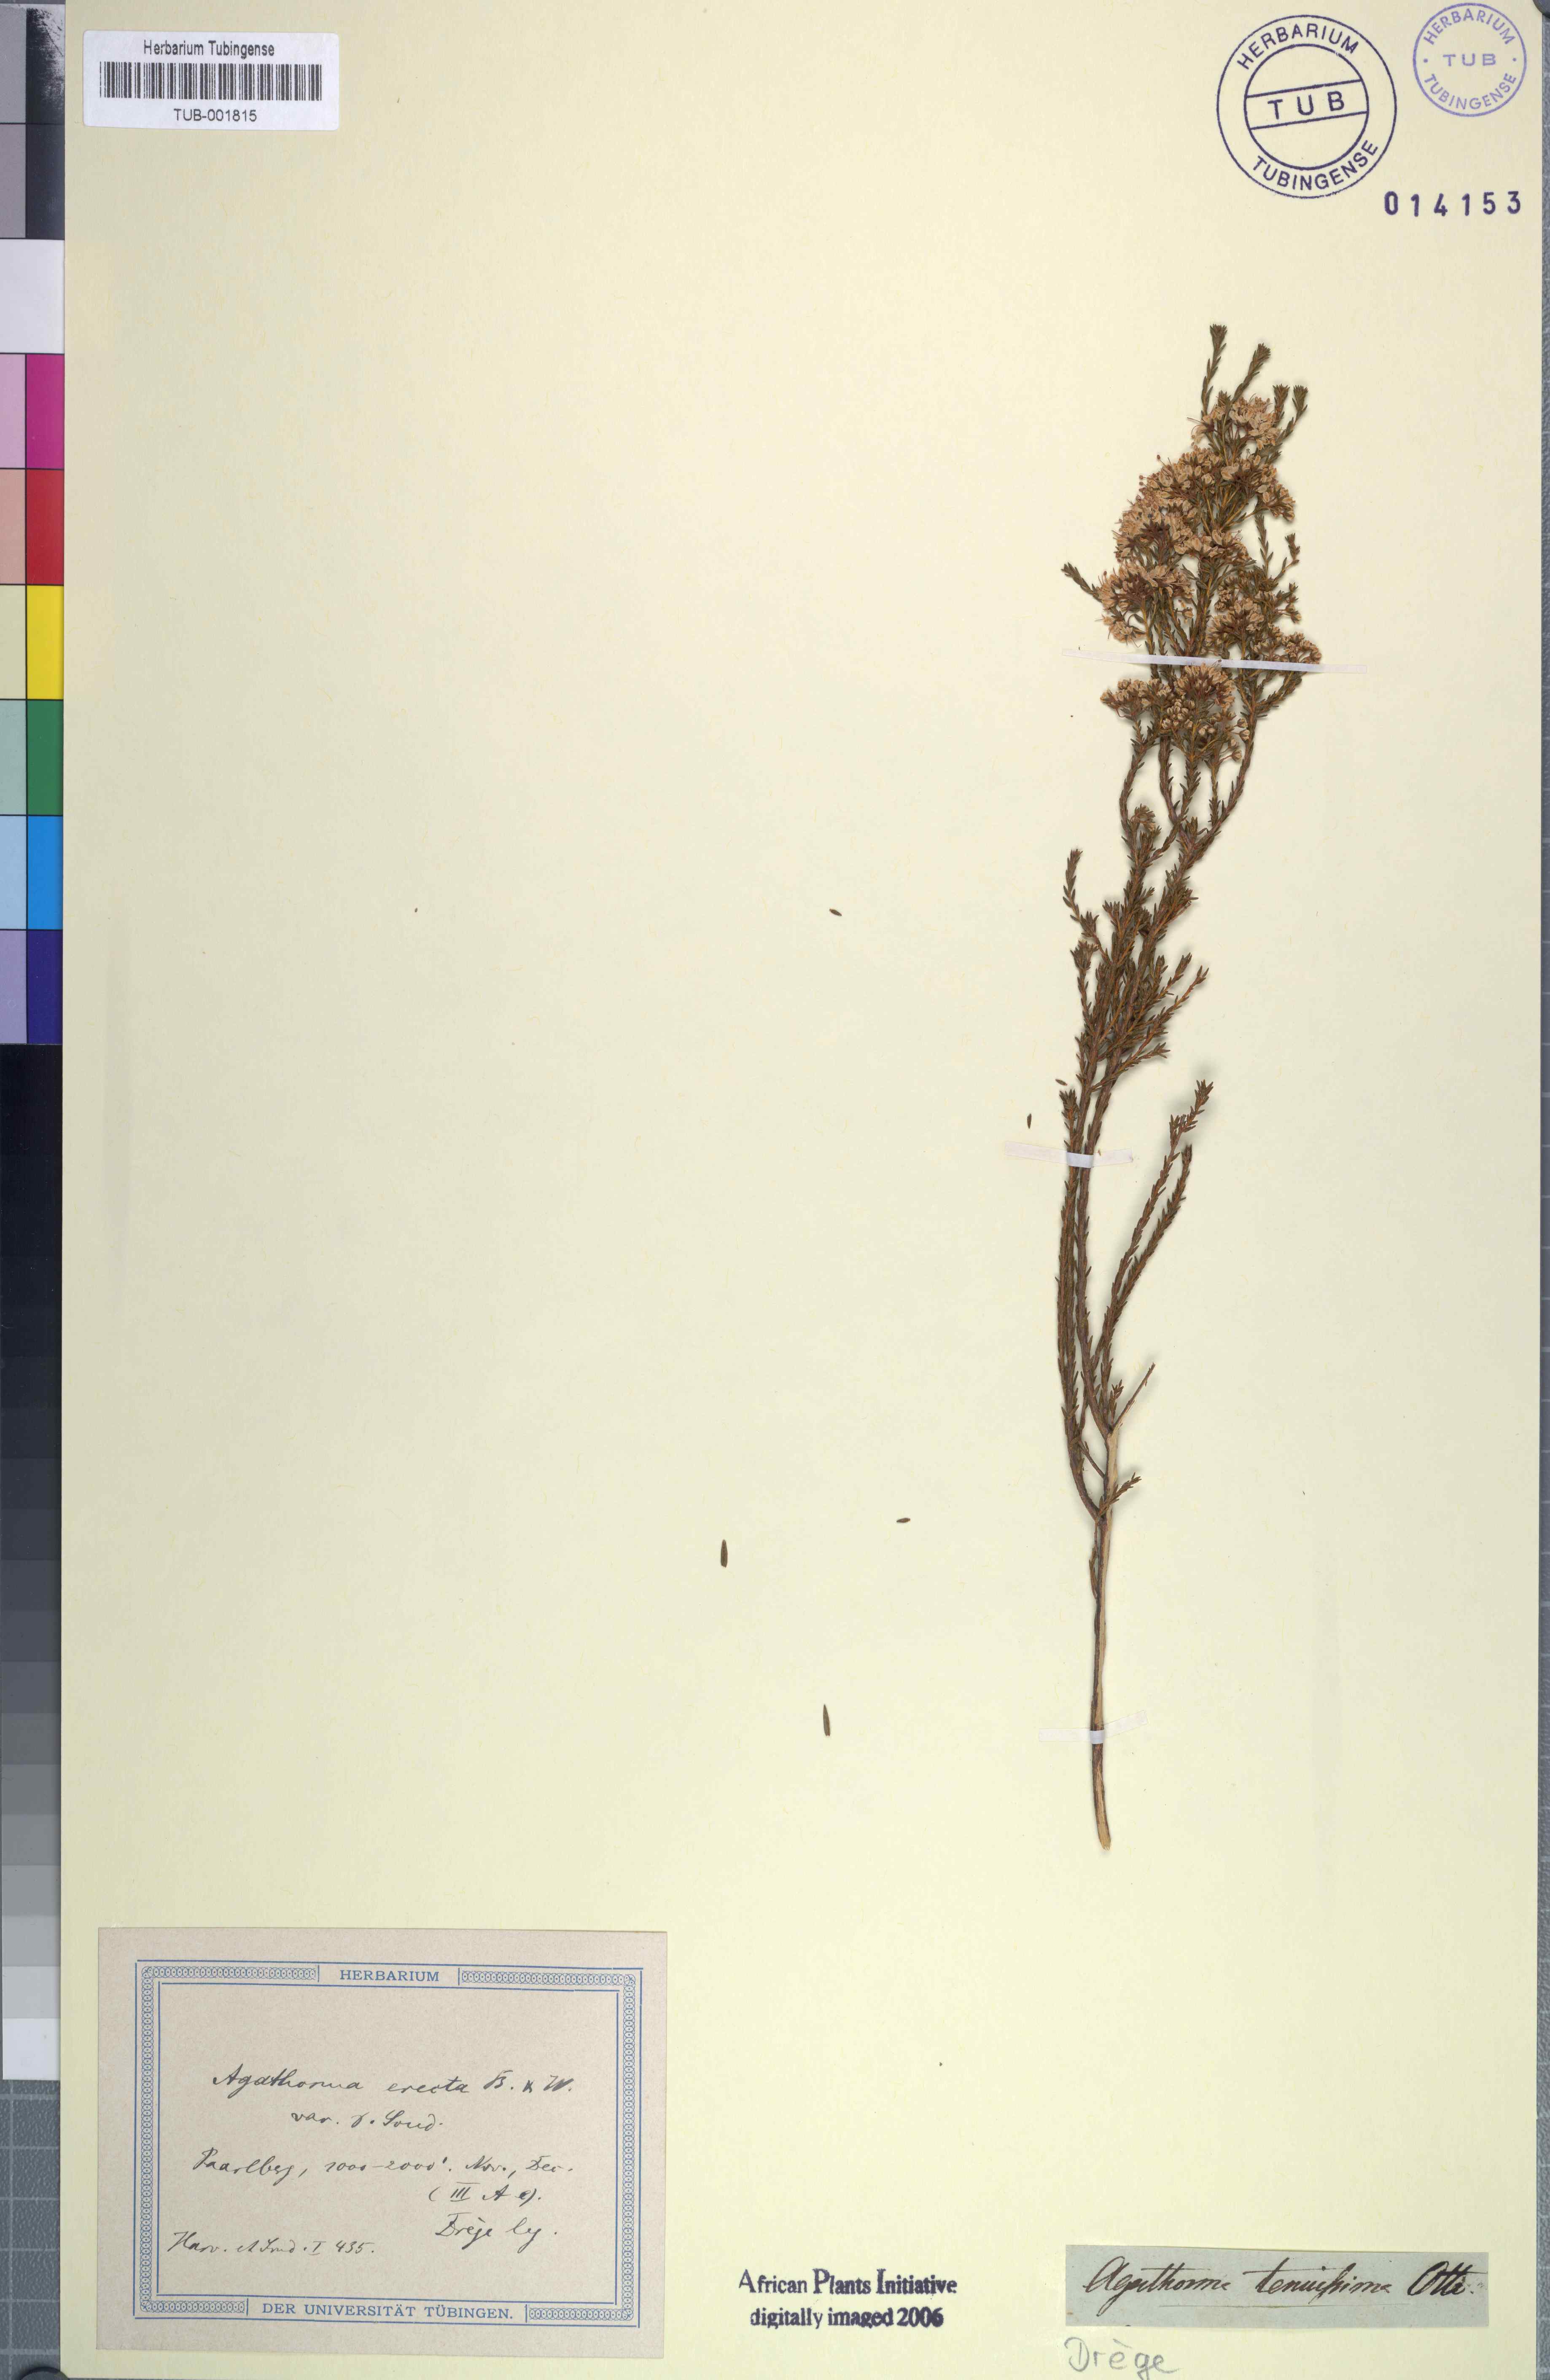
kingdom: Plantae
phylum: Tracheophyta
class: Magnoliopsida
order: Sapindales
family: Rutaceae
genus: Agathosma
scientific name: Agathosma capensis
